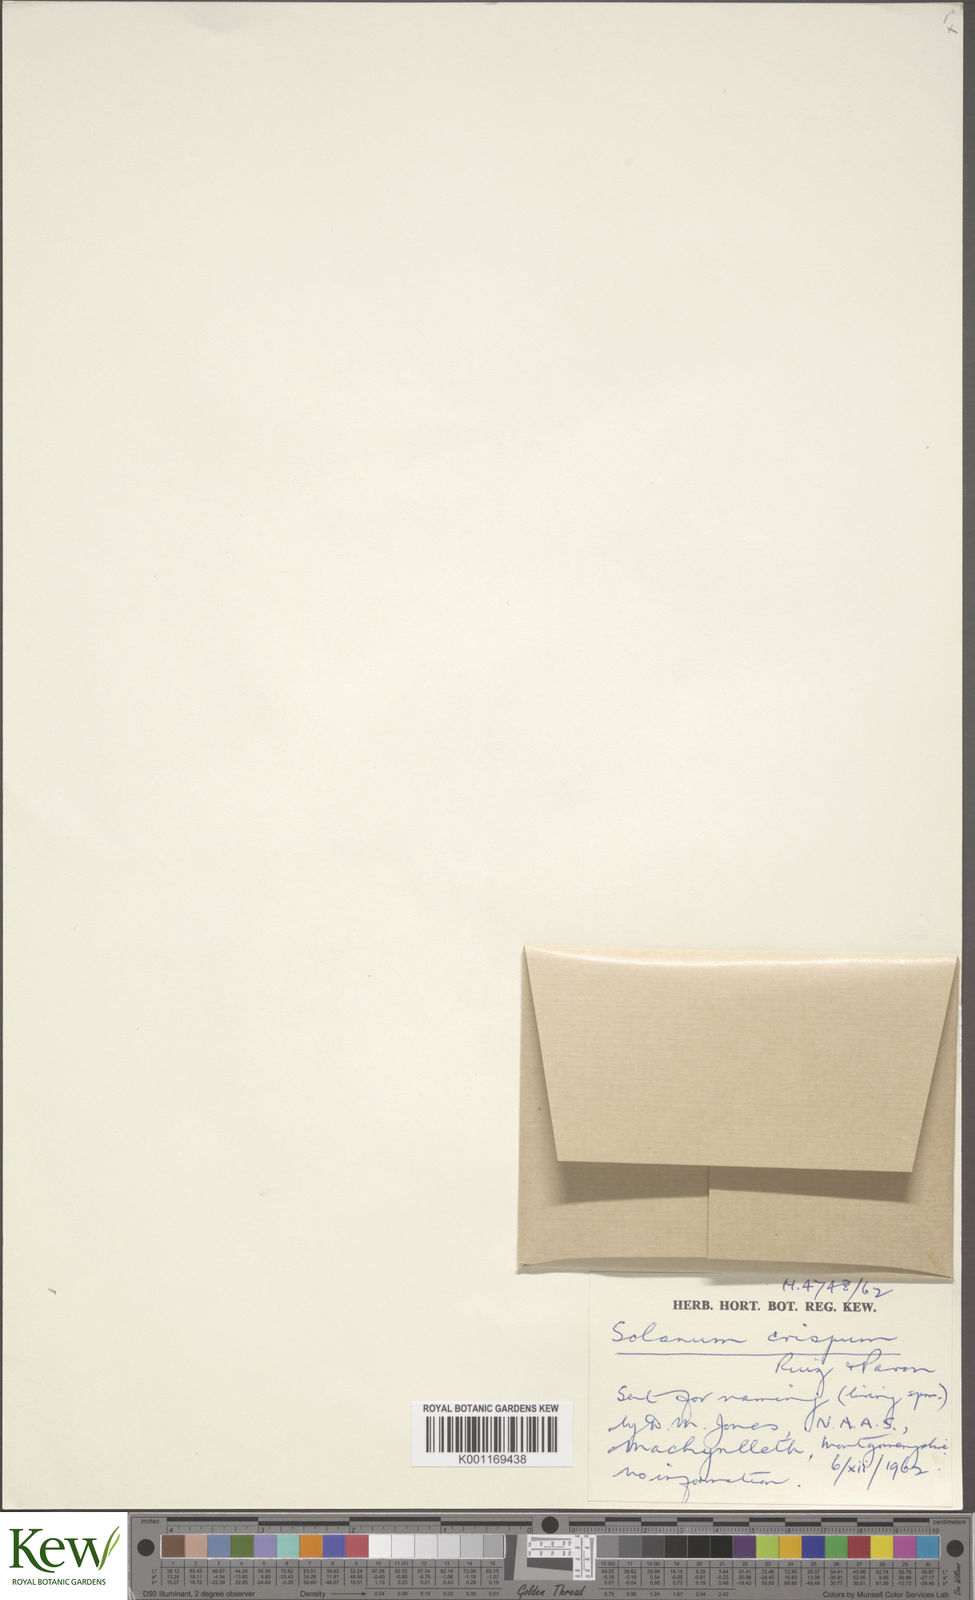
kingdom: Plantae
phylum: Tracheophyta
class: Magnoliopsida
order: Solanales
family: Solanaceae
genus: Solanum
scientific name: Solanum crispum
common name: Chilean nightshade
